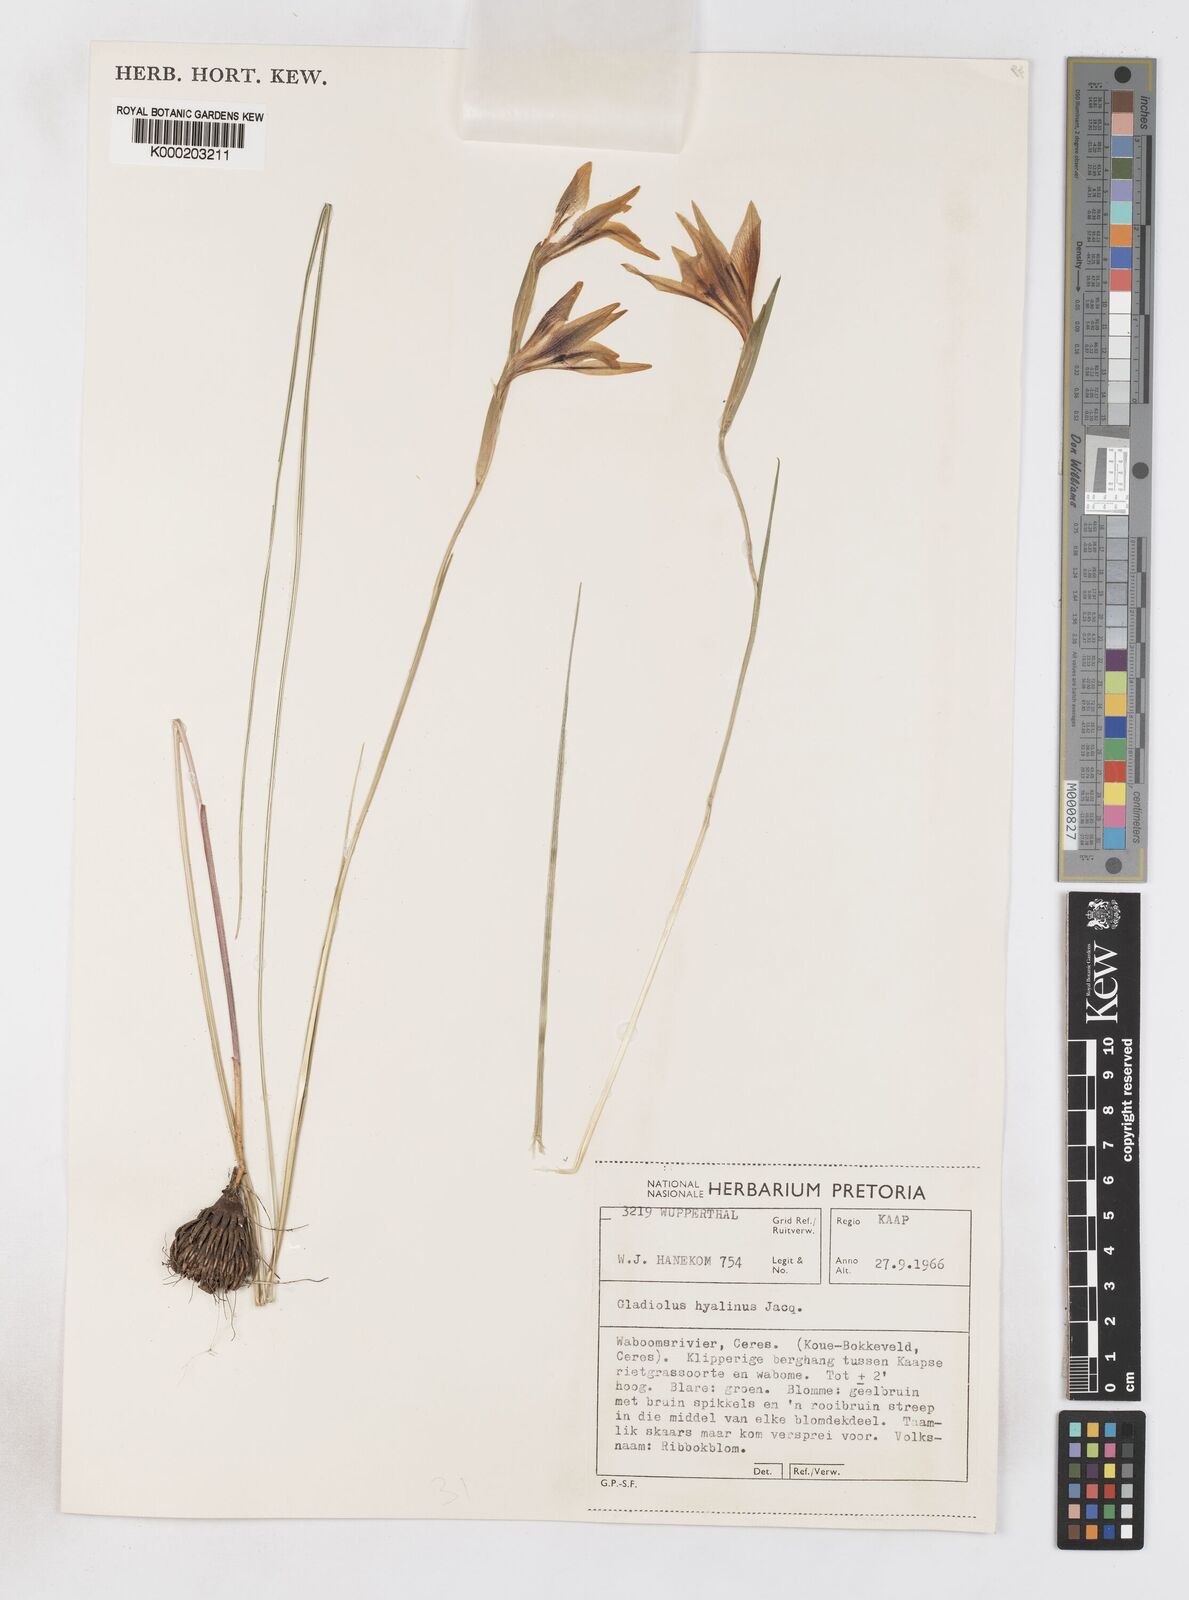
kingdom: Plantae
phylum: Tracheophyta
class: Liliopsida
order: Asparagales
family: Iridaceae
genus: Gladiolus
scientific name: Gladiolus hyalinus
